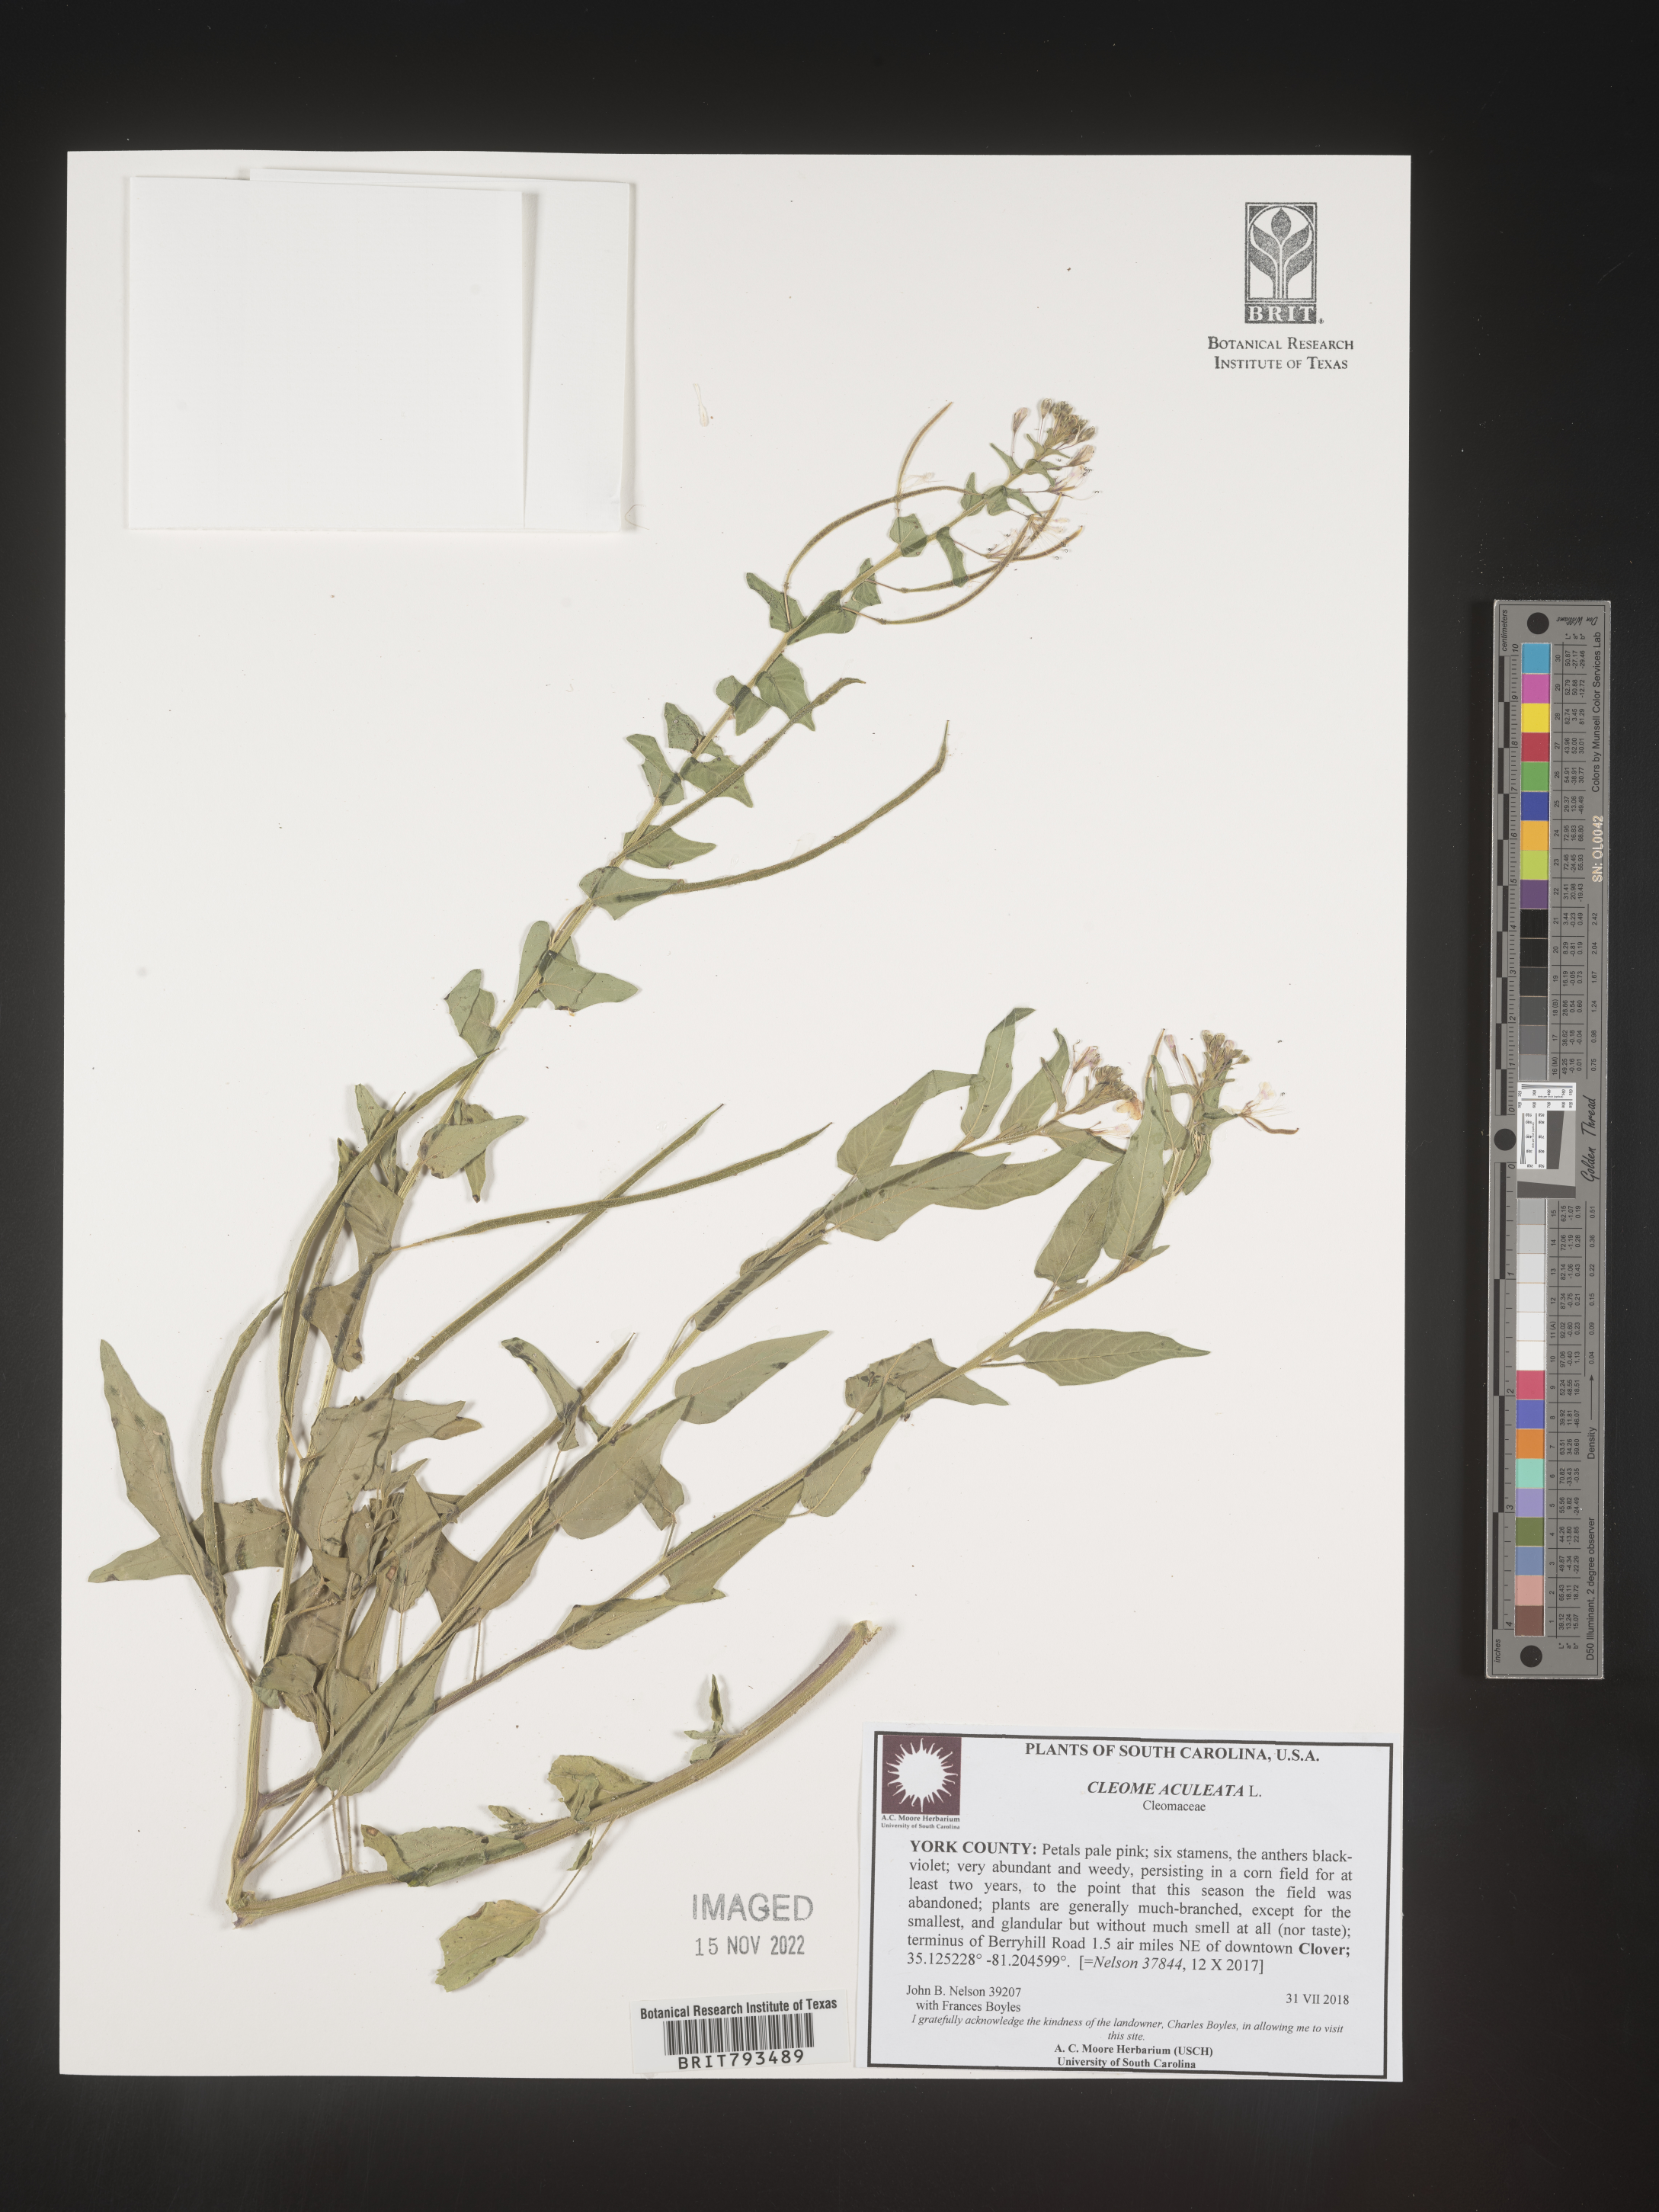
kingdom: Plantae
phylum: Tracheophyta
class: Magnoliopsida
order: Brassicales
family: Cleomaceae
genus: Tarenaya
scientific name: Tarenaya aculeata
